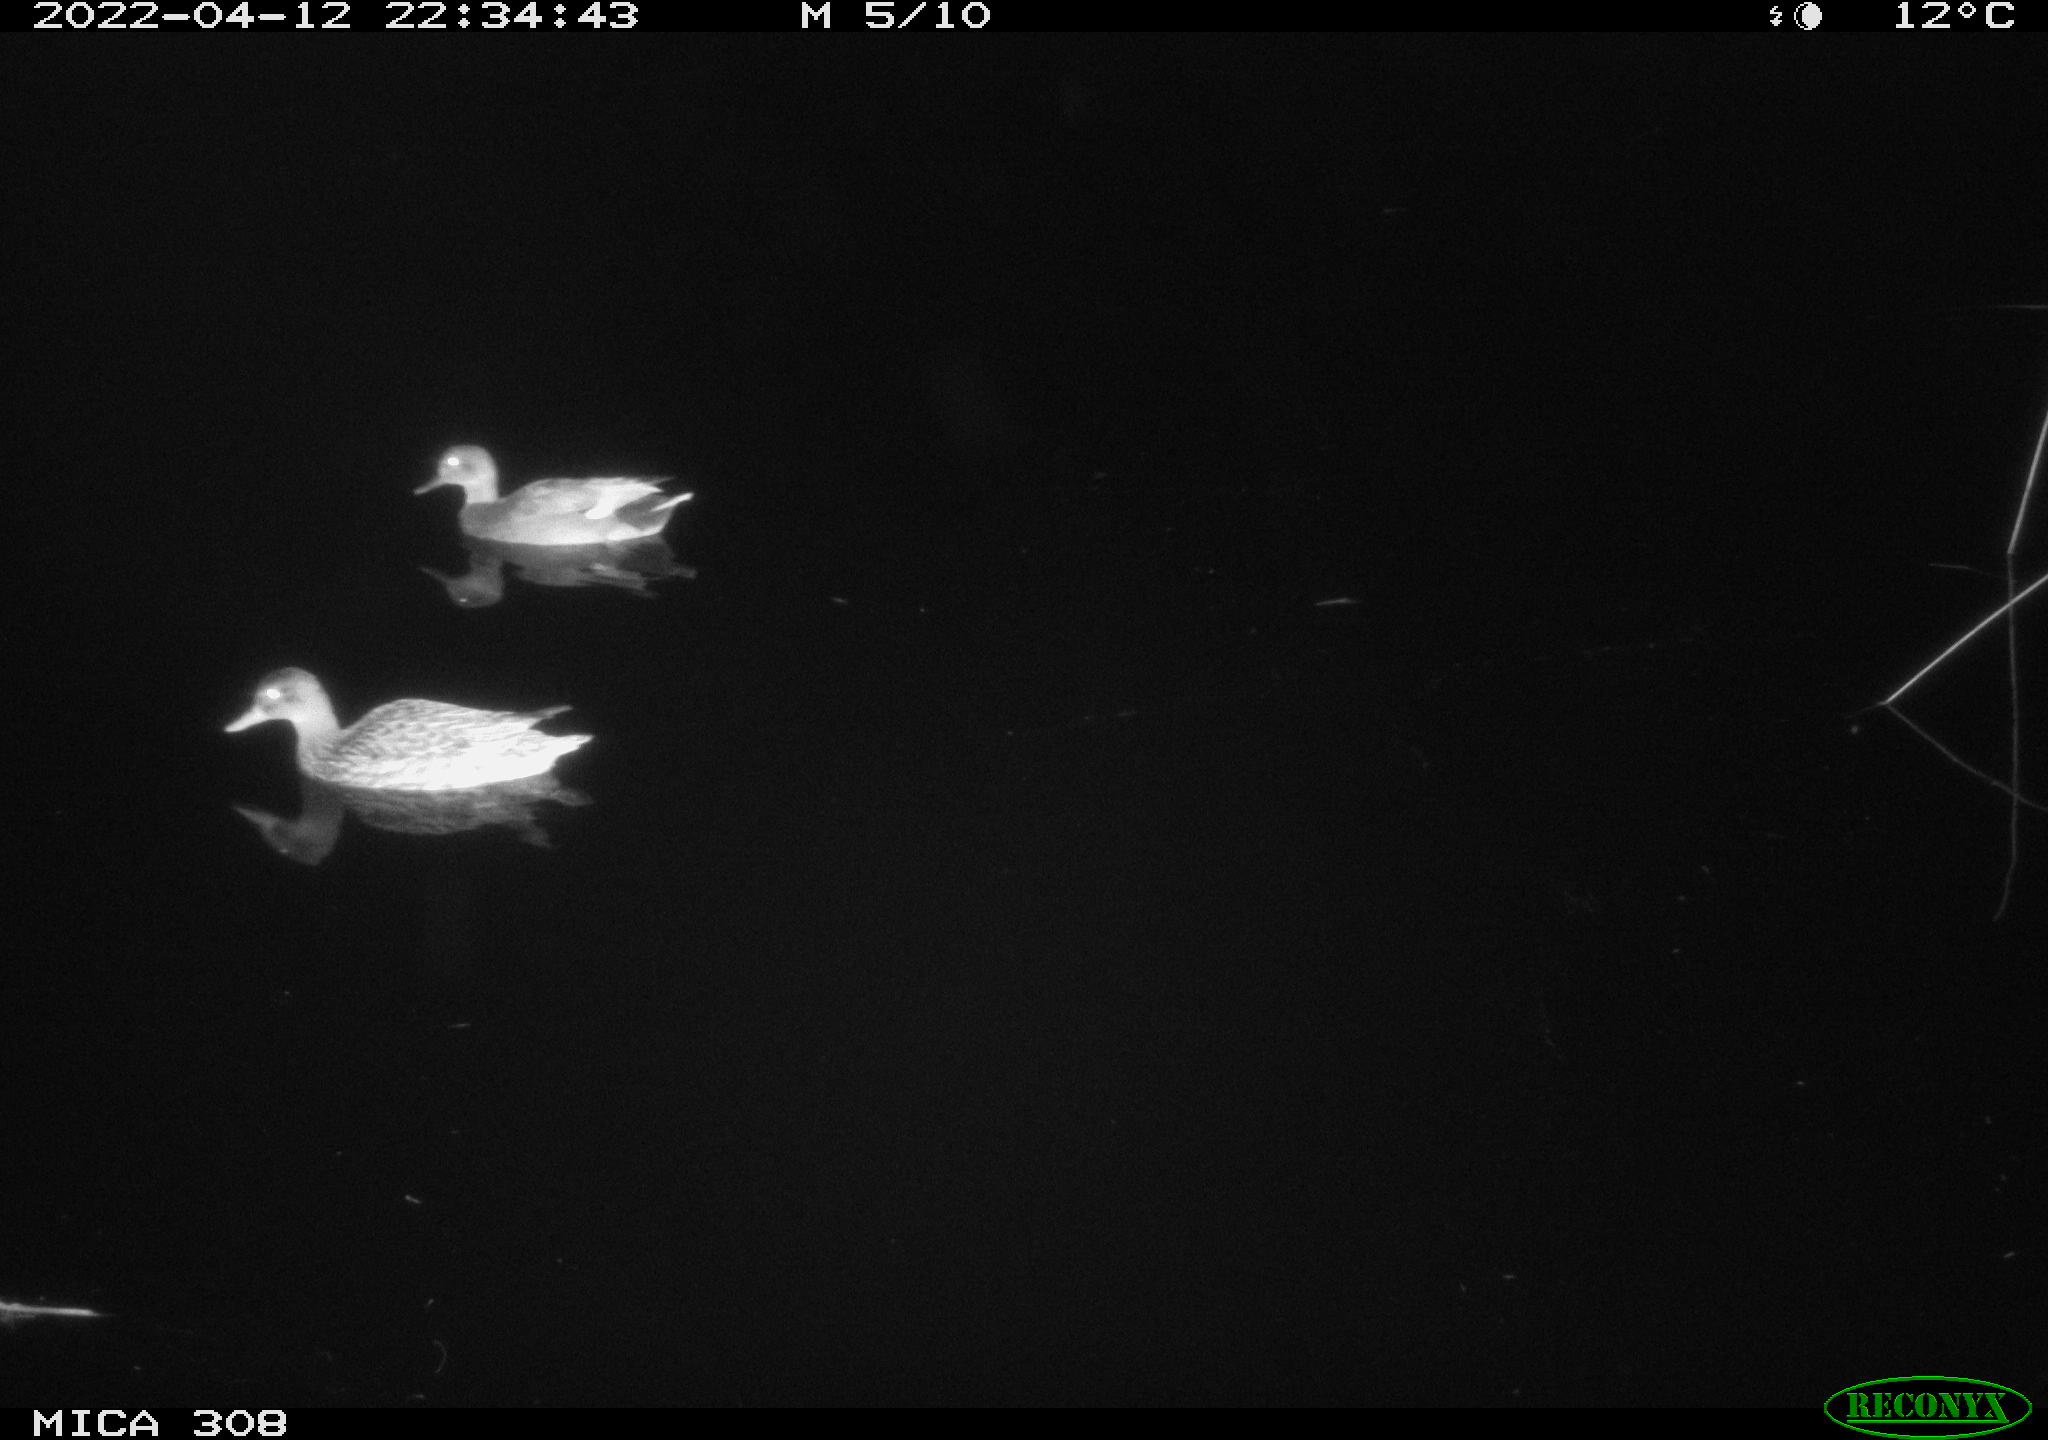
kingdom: Animalia
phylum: Chordata
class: Aves
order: Anseriformes
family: Anatidae
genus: Mareca
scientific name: Mareca strepera
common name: Gadwall
